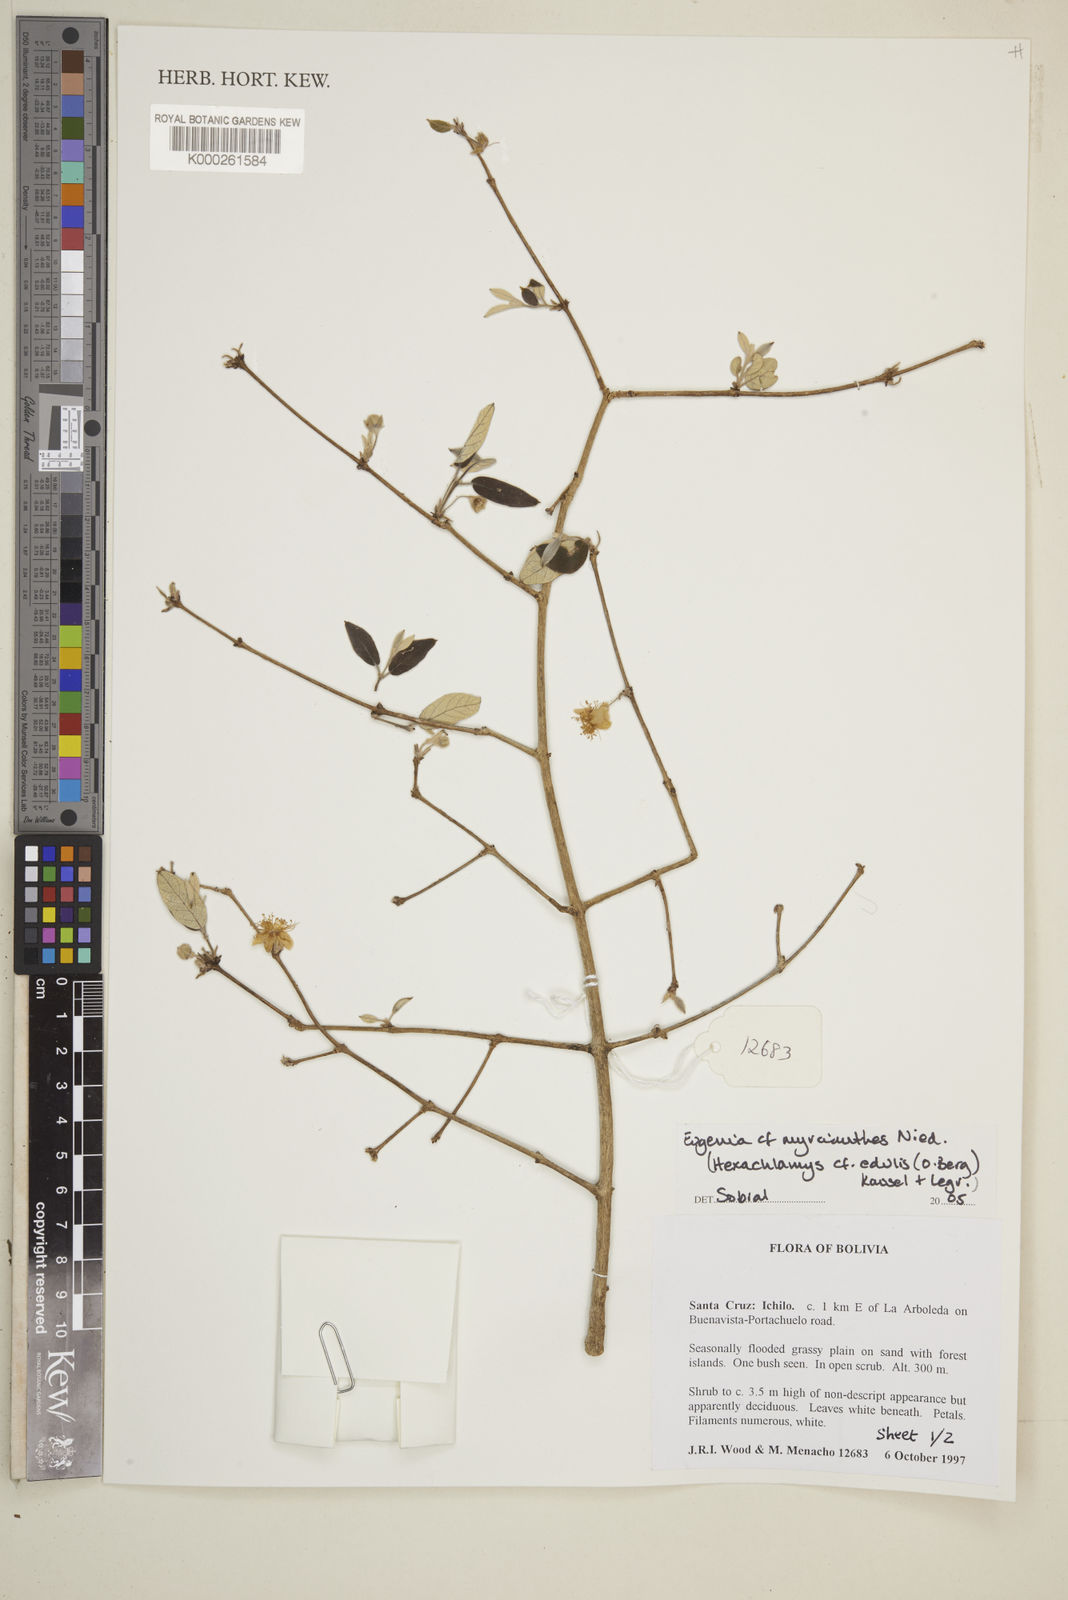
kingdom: Plantae
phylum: Tracheophyta
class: Magnoliopsida
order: Myrtales
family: Myrtaceae
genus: Eugenia
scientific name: Eugenia
